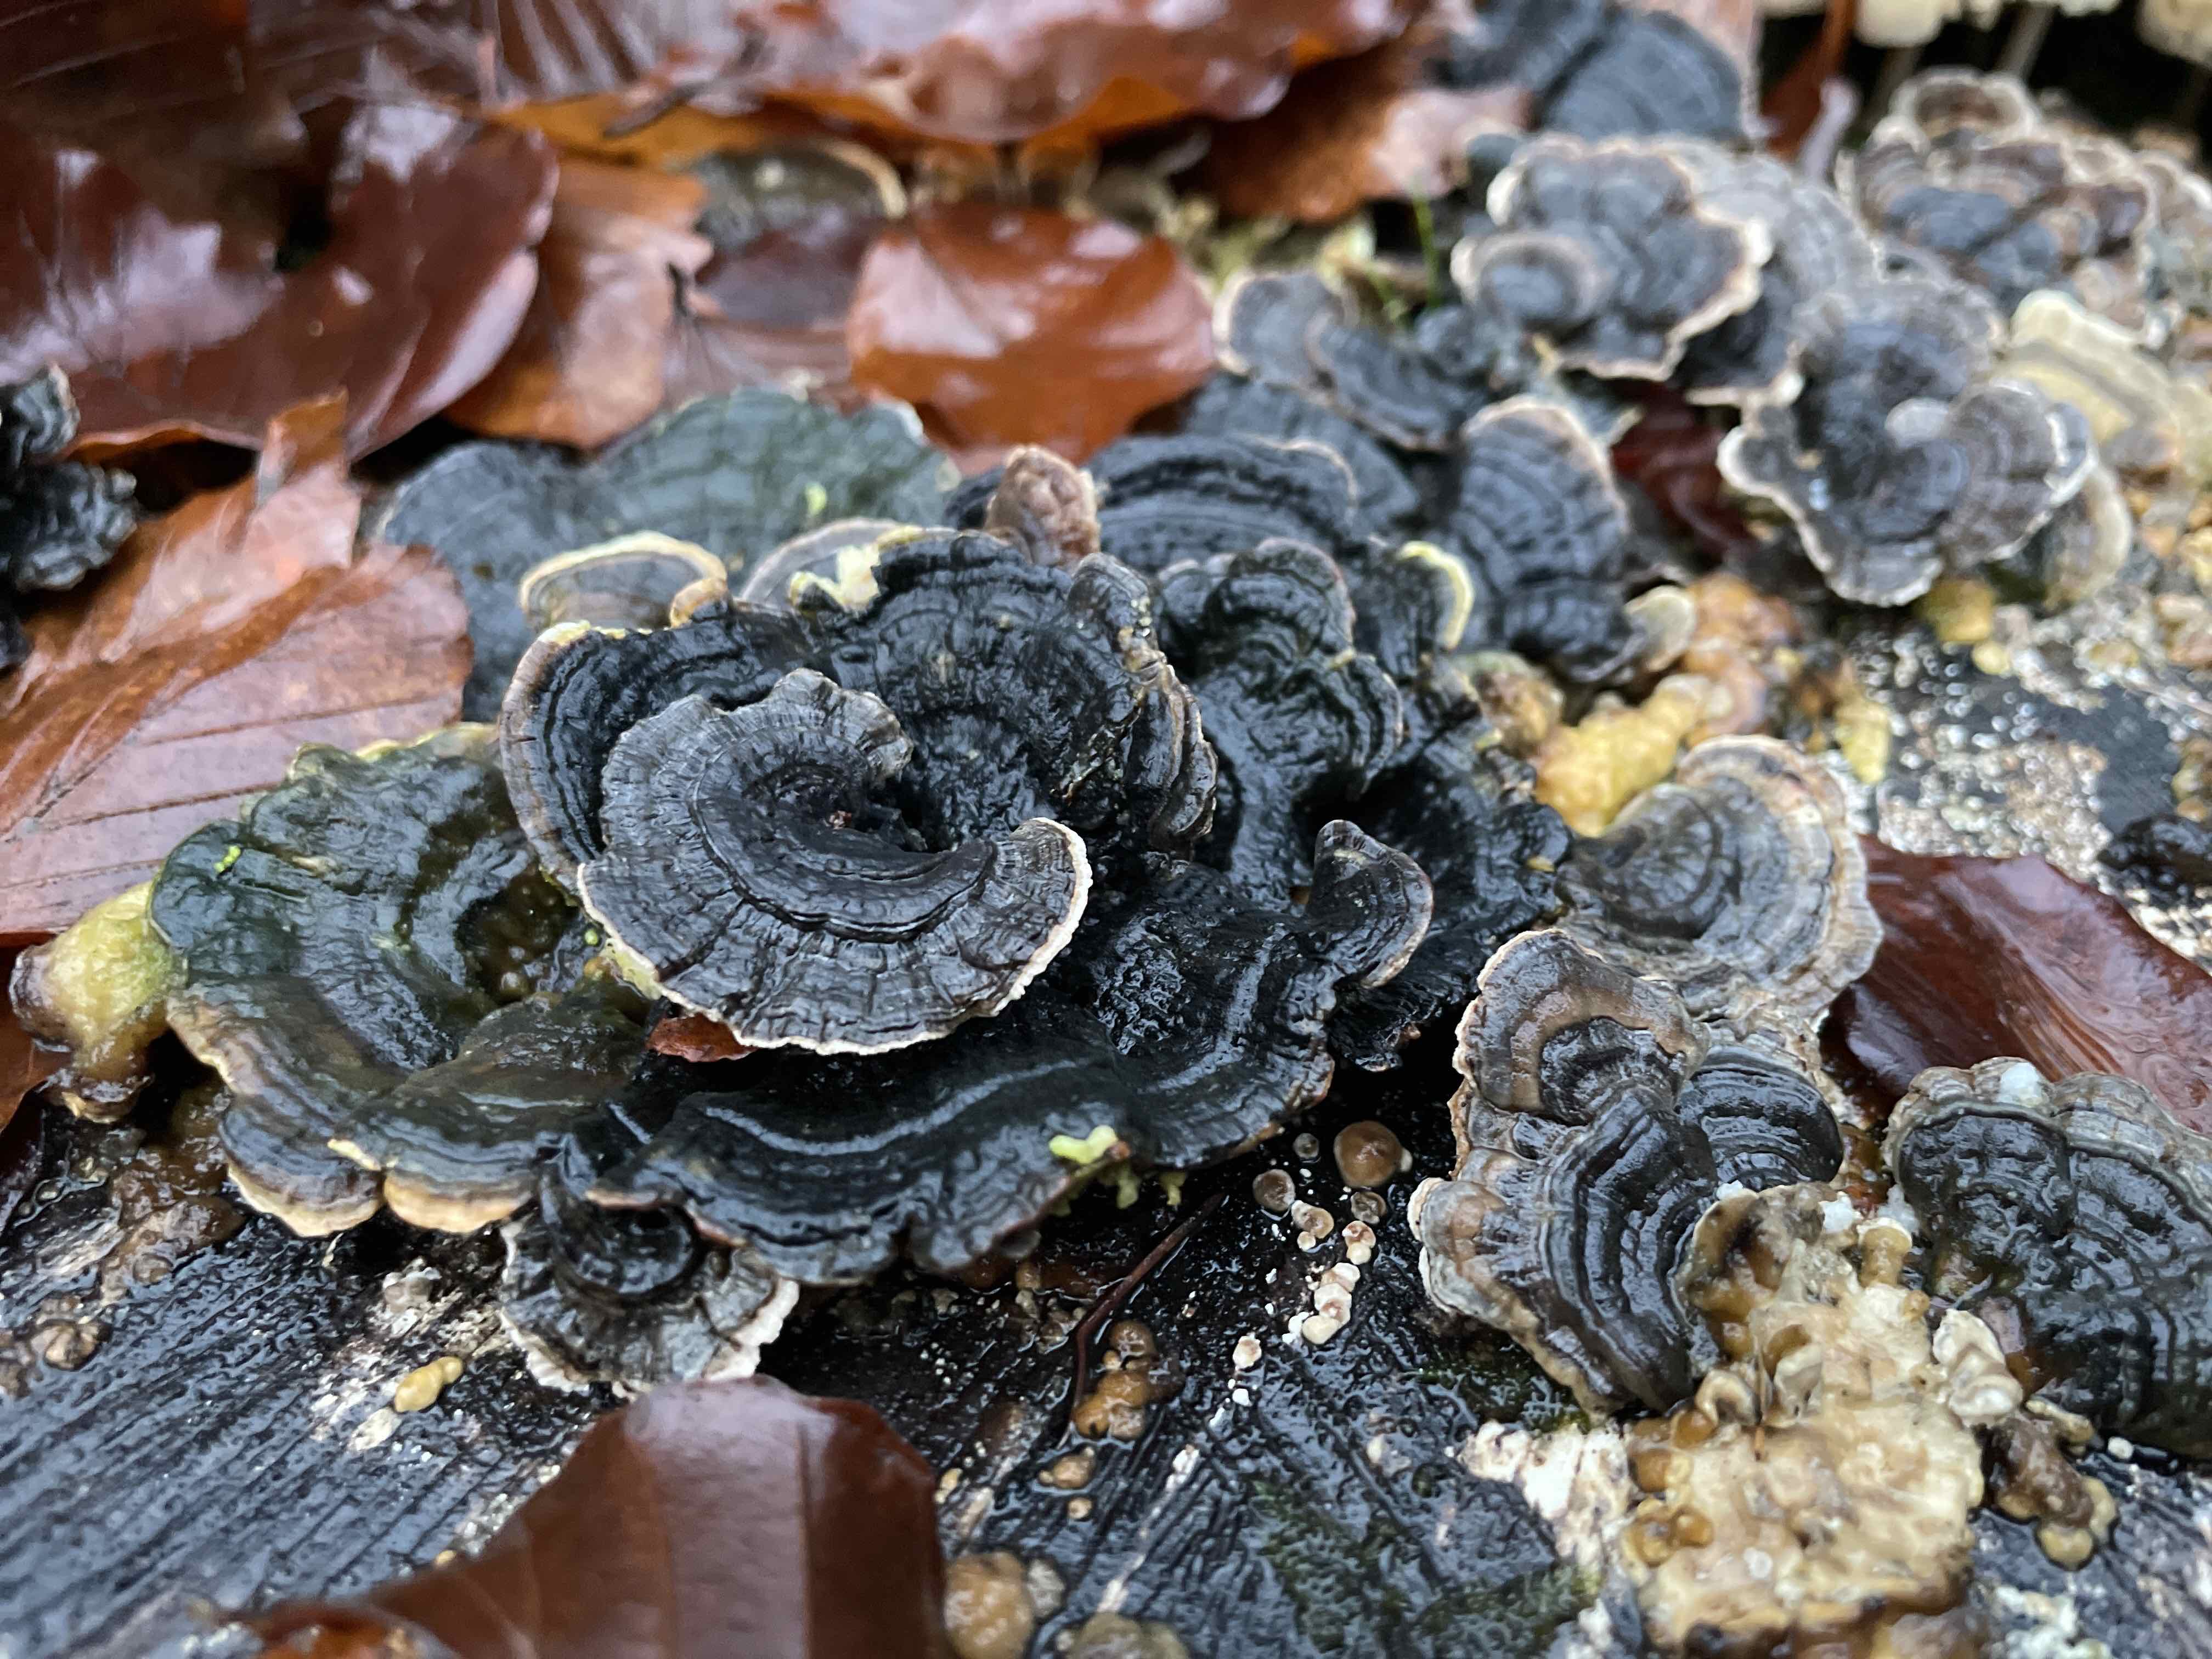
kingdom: Fungi
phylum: Basidiomycota
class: Agaricomycetes
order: Polyporales
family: Polyporaceae
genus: Trametes
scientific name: Trametes versicolor
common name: broget læderporesvamp
